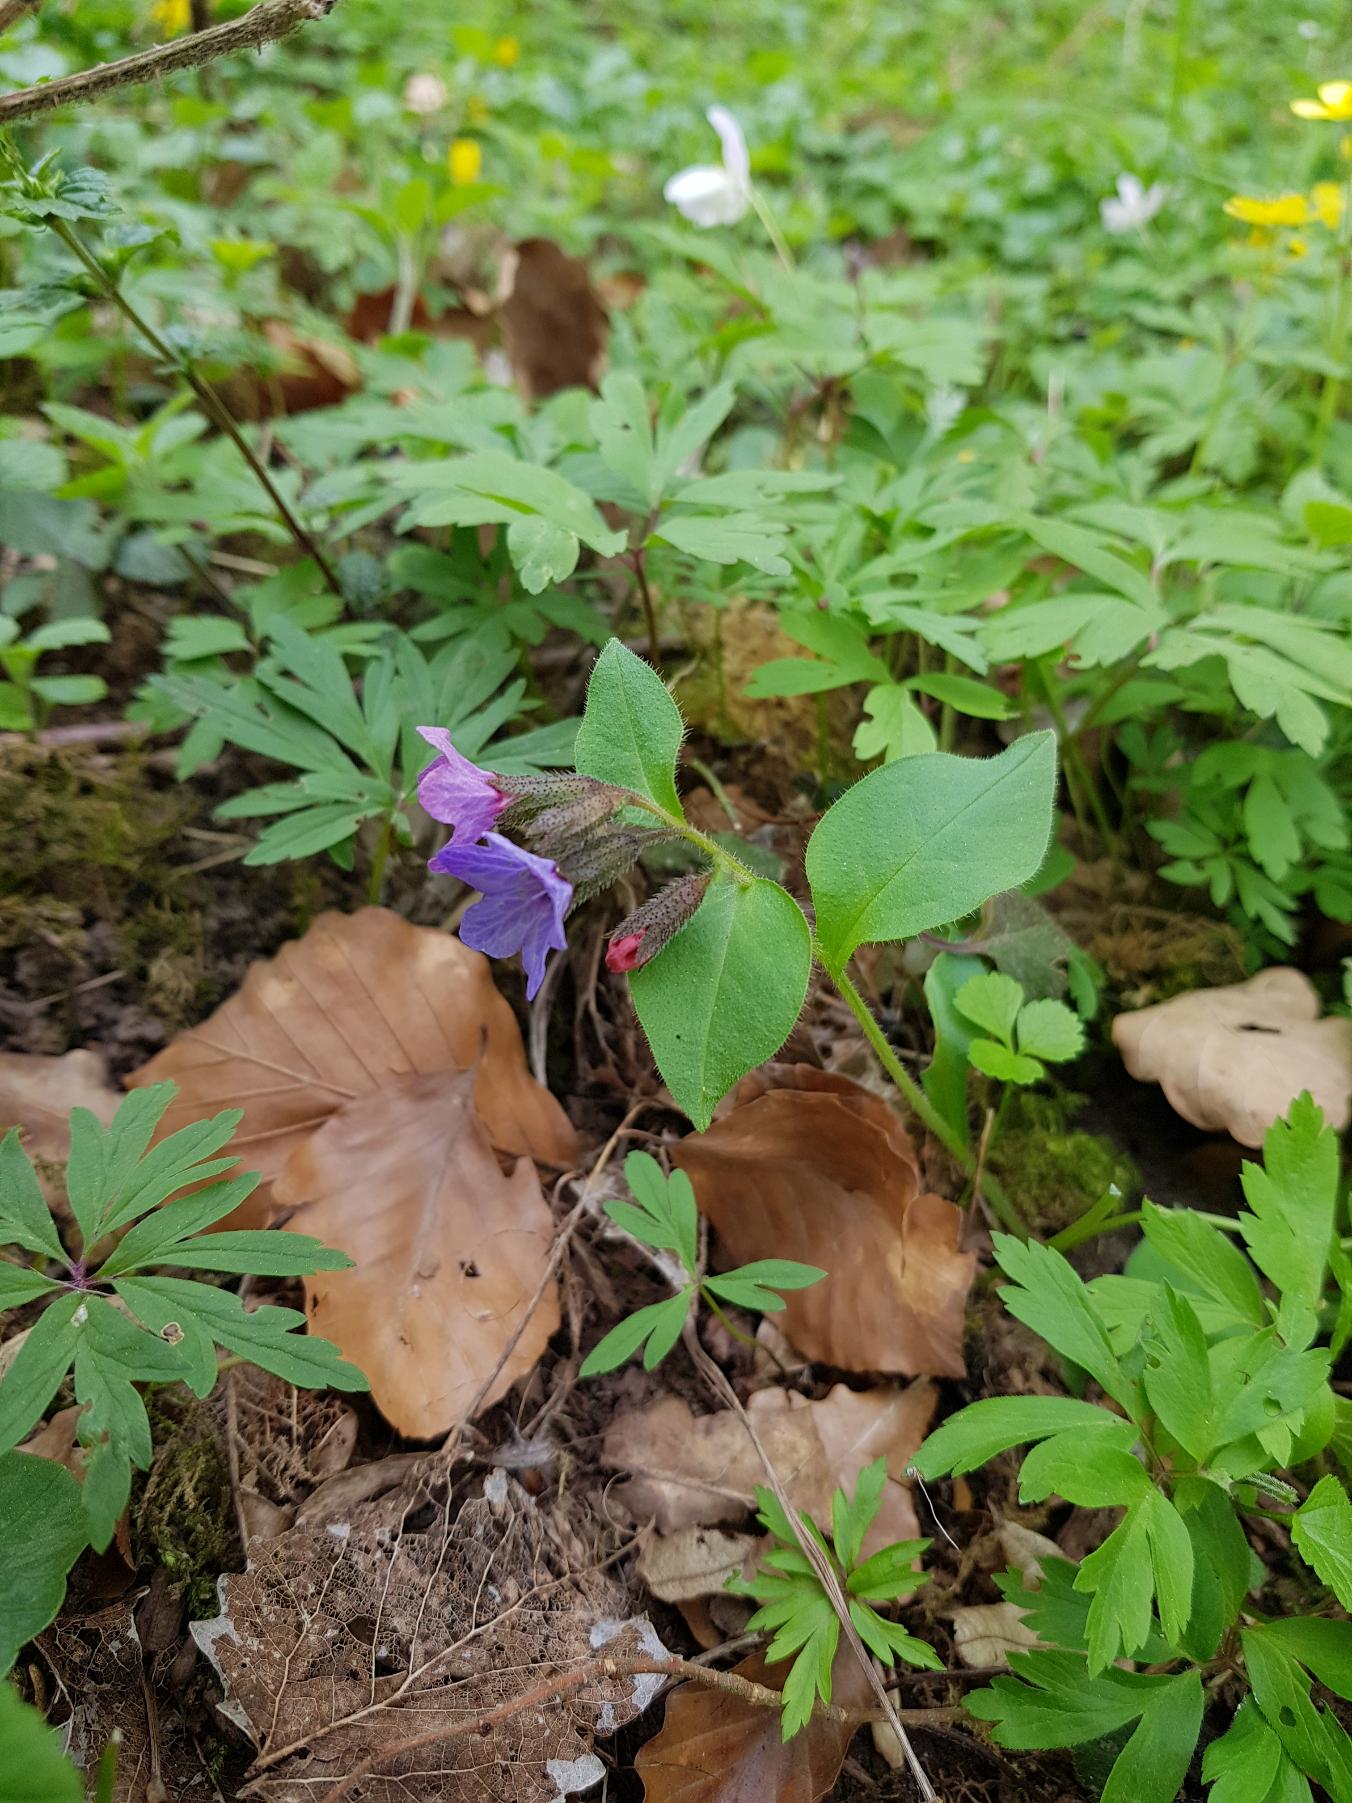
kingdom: Plantae
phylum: Tracheophyta
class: Magnoliopsida
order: Boraginales
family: Boraginaceae
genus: Pulmonaria
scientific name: Pulmonaria obscura
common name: Almindelig lungeurt
